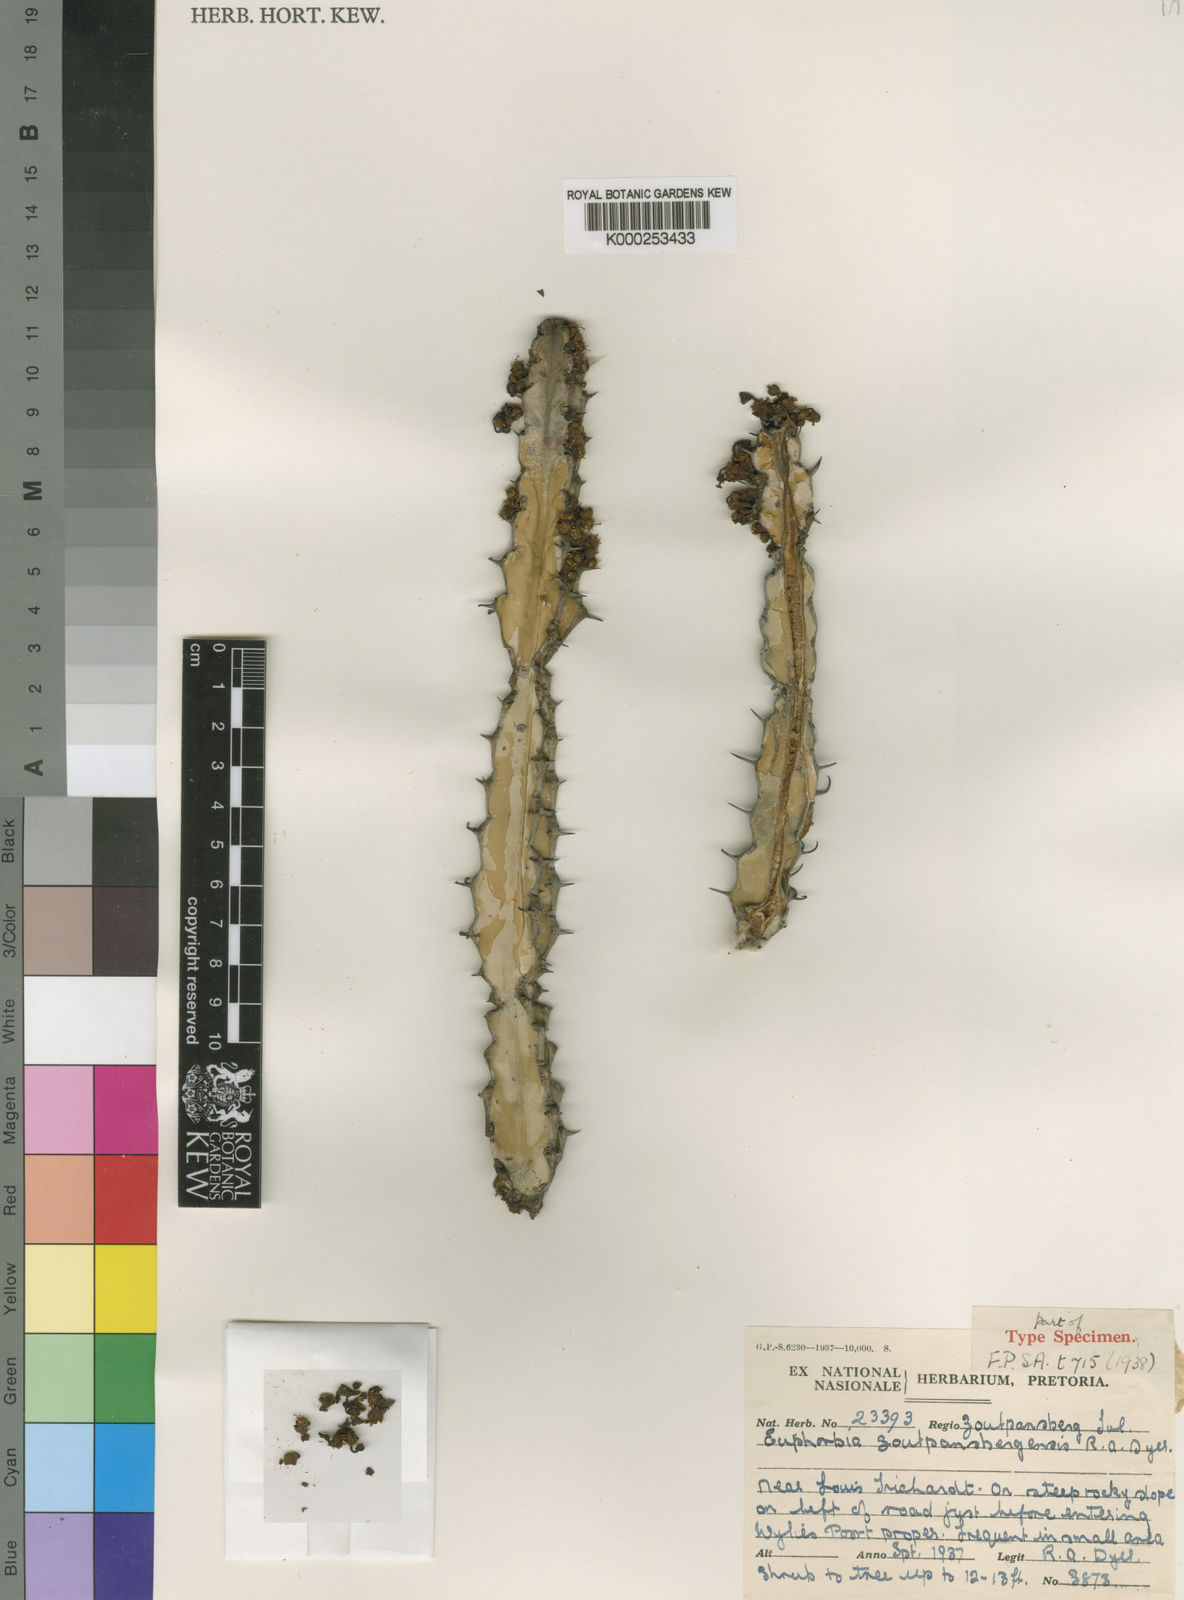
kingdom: Plantae
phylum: Tracheophyta
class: Magnoliopsida
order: Malpighiales
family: Euphorbiaceae
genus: Euphorbia
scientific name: Euphorbia zoutpansbergensis
